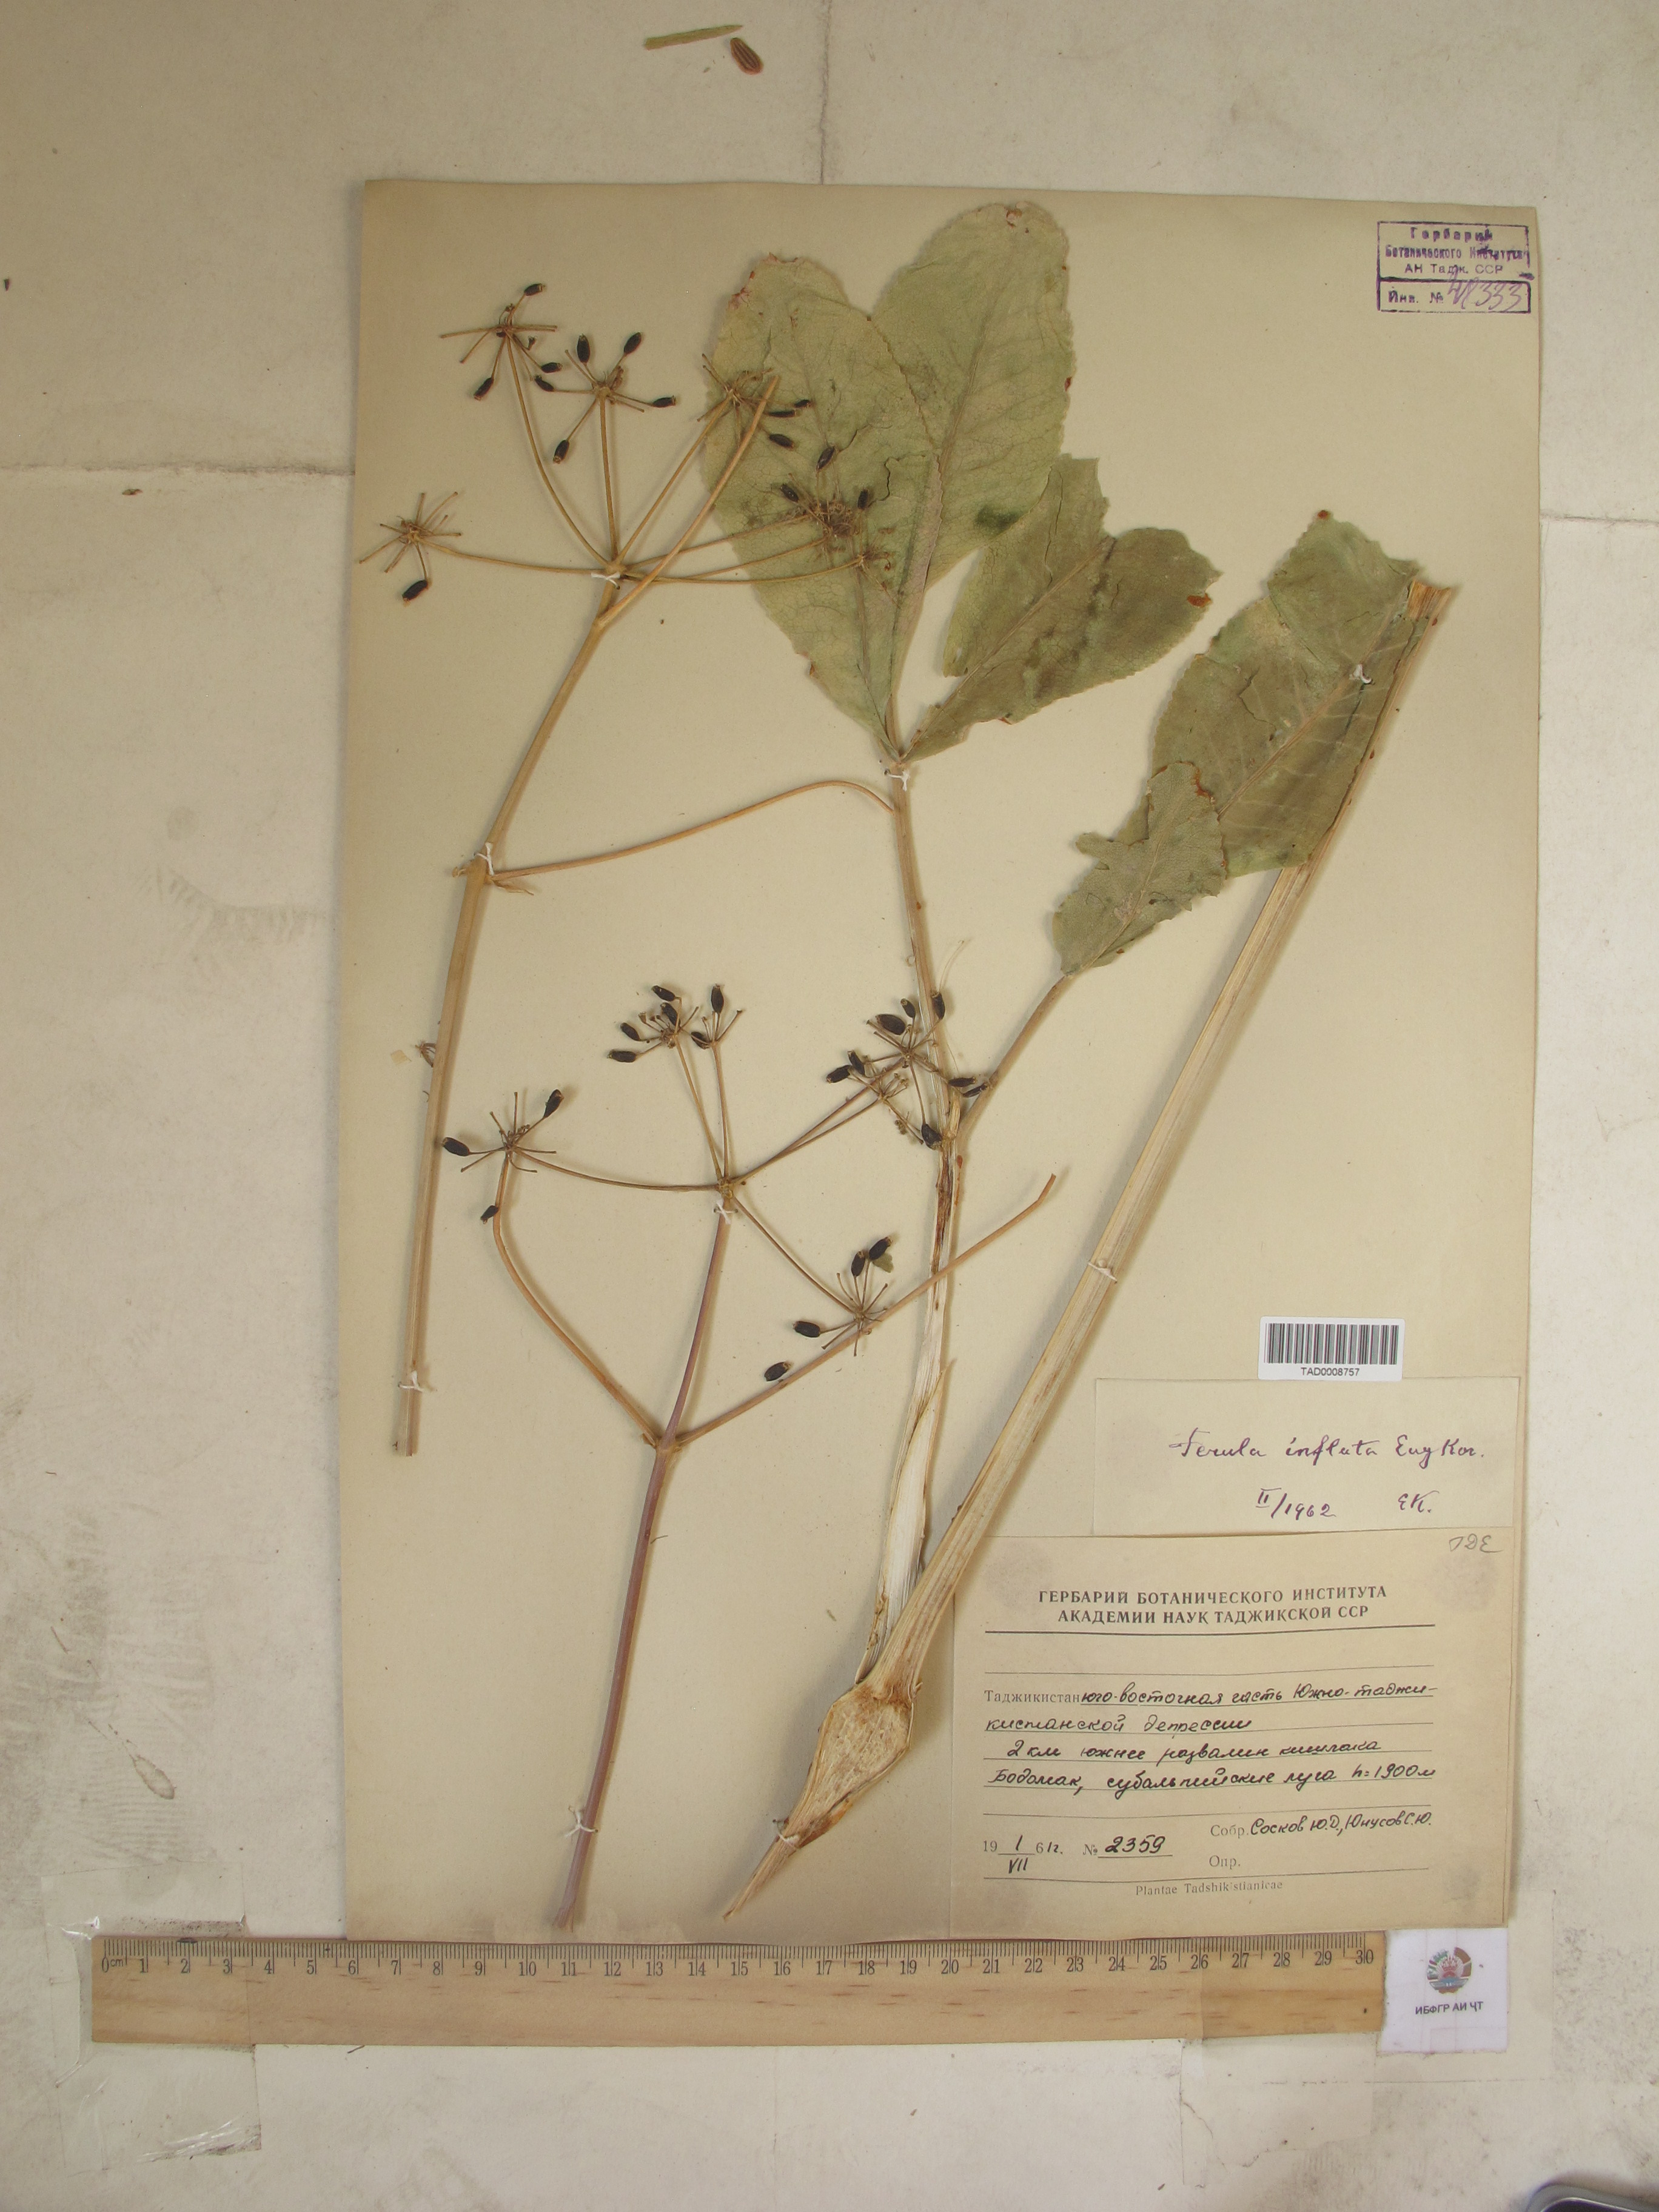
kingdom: Plantae
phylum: Tracheophyta
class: Magnoliopsida
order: Apiales
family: Apiaceae
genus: Ferula
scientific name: Ferula gigantea
